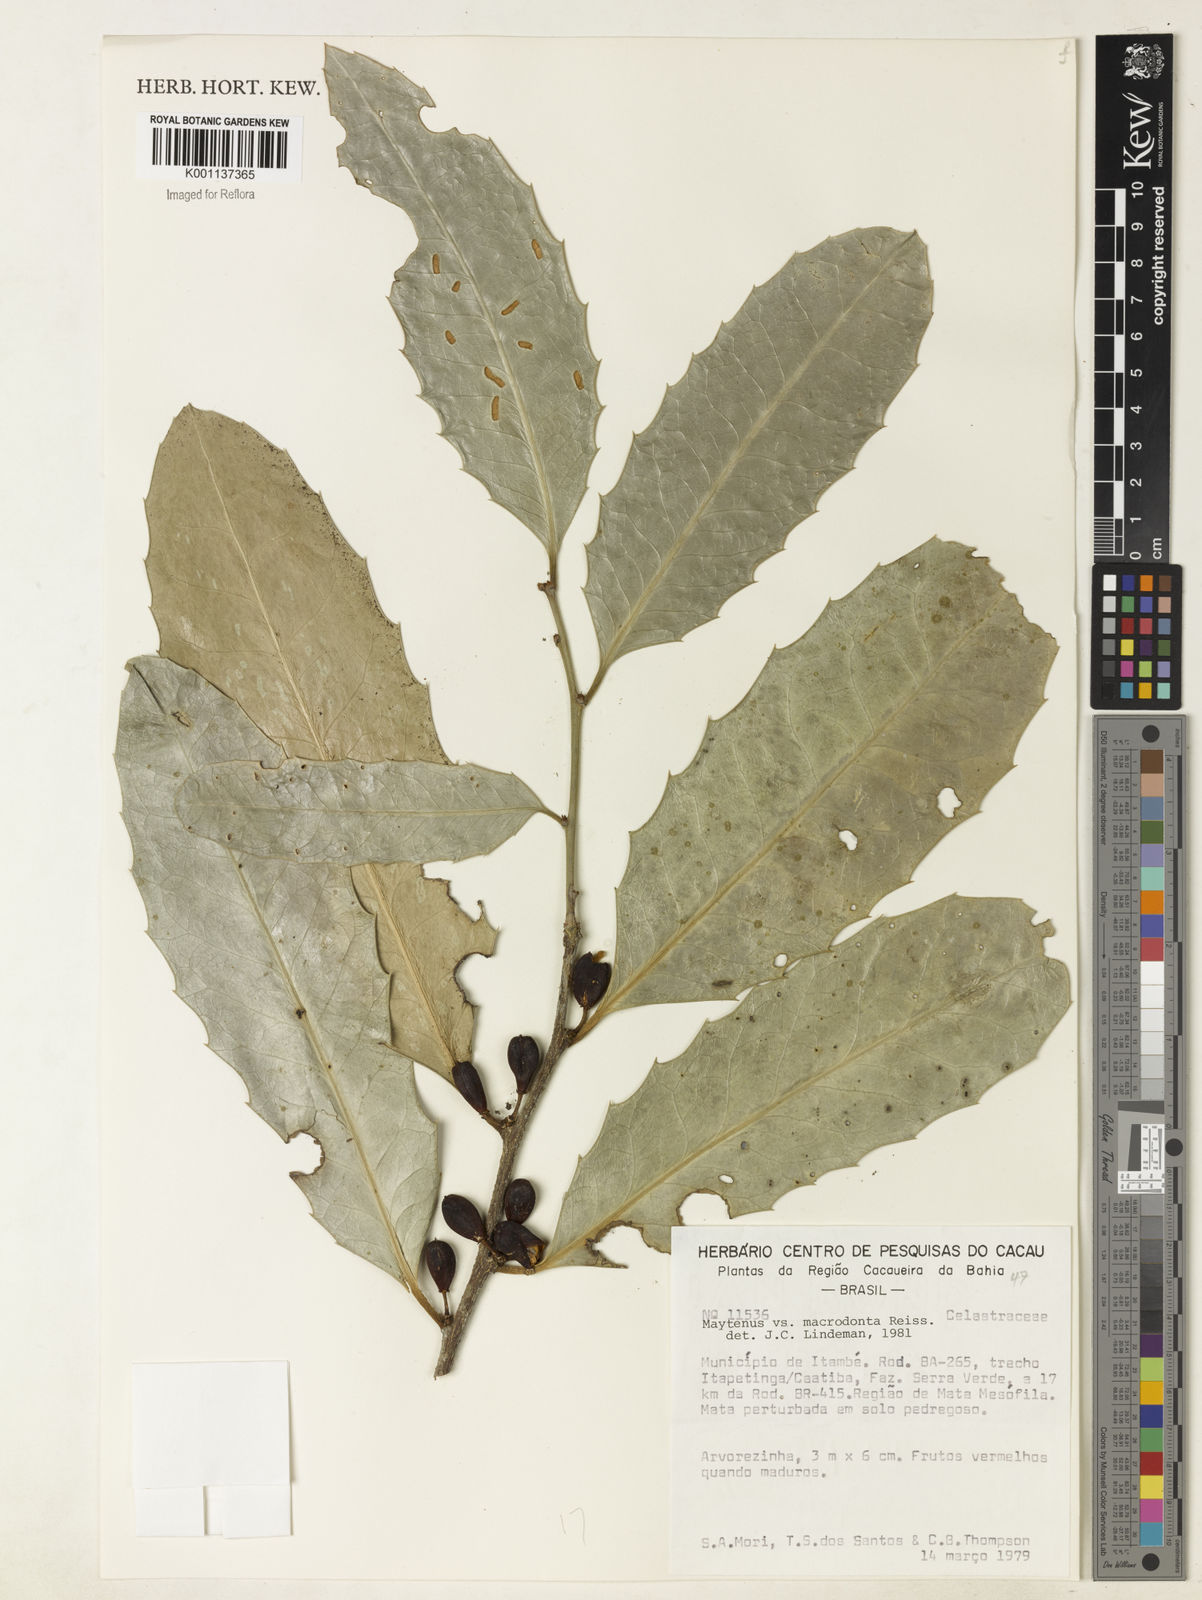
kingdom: Plantae
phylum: Tracheophyta
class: Magnoliopsida
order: Celastrales
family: Celastraceae
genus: Monteverdia
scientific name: Monteverdia ilicifolia
